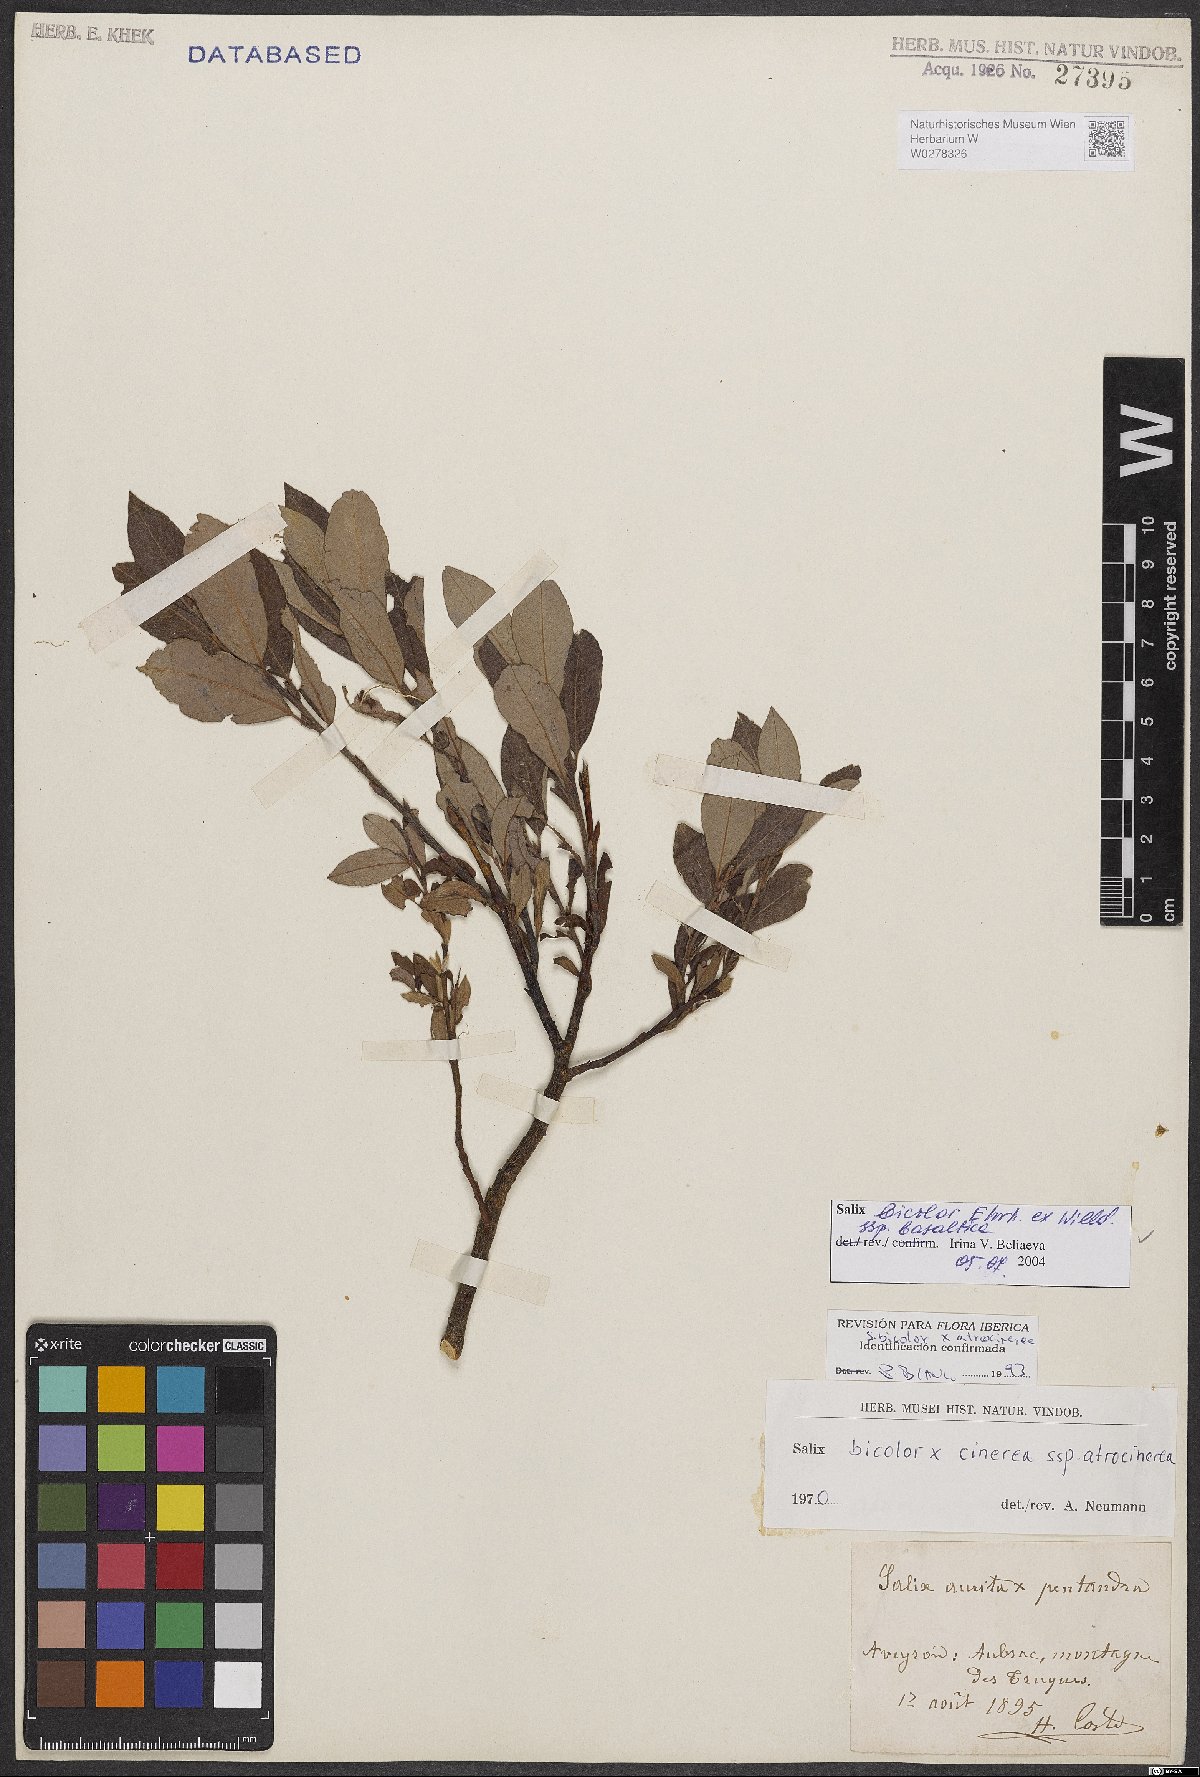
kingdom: Plantae
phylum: Tracheophyta
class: Magnoliopsida
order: Malpighiales
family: Salicaceae
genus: Salix
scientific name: Salix basaltica
